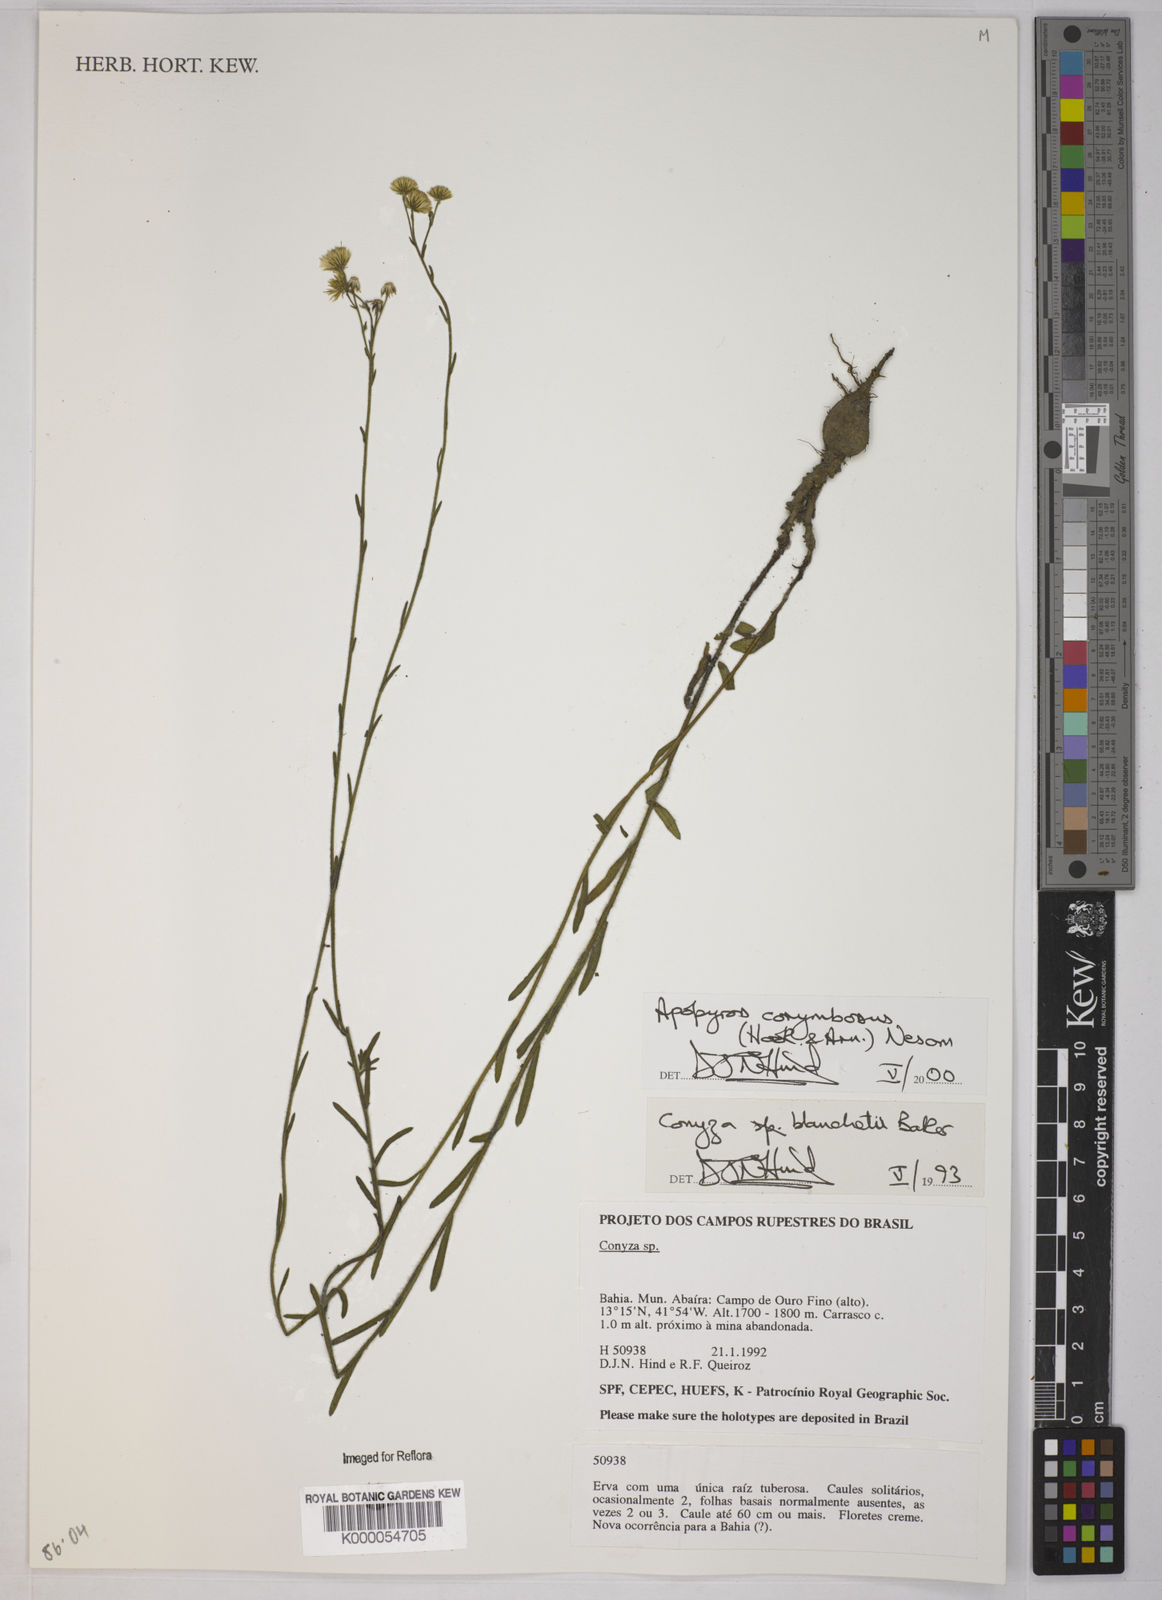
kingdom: Plantae
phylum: Tracheophyta
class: Magnoliopsida
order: Asterales
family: Asteraceae
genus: Apopyros
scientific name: Apopyros corymbosus
